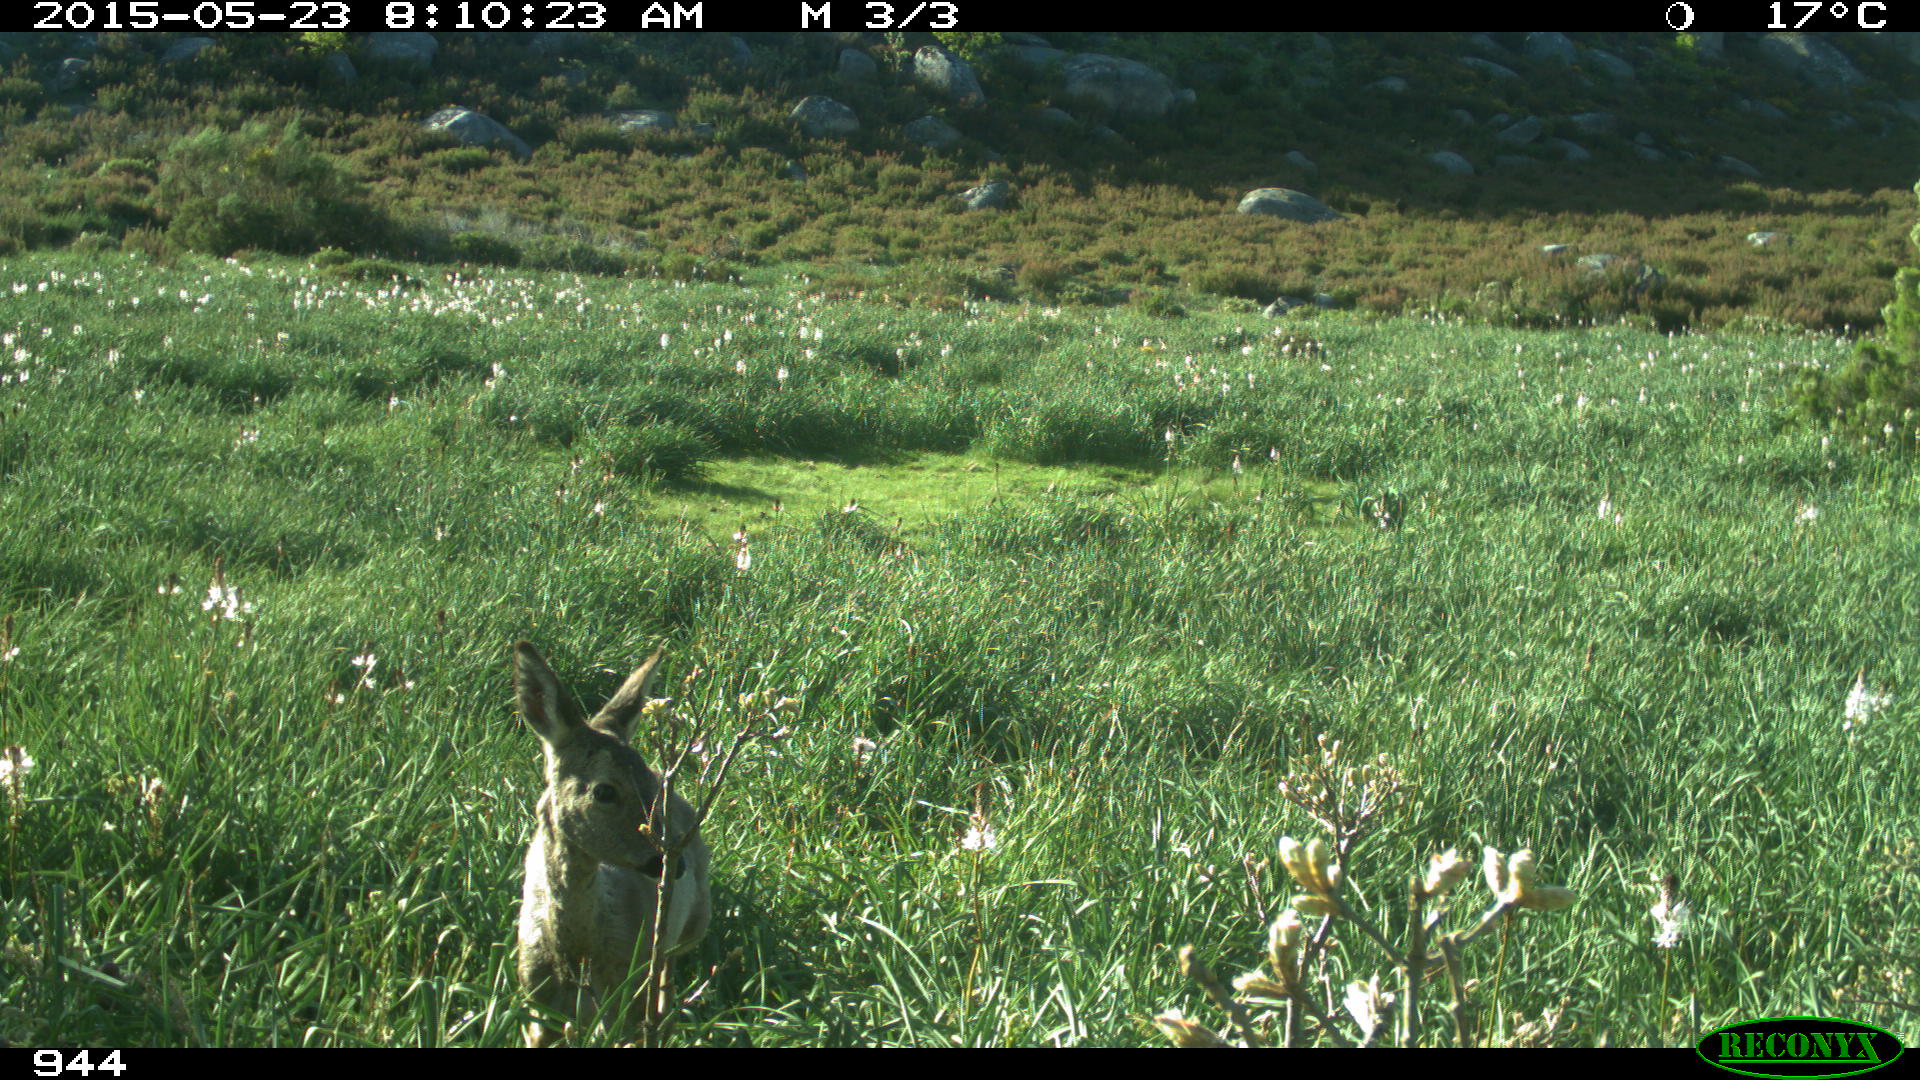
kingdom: Animalia
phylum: Chordata
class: Mammalia
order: Artiodactyla
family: Cervidae
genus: Capreolus
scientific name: Capreolus capreolus
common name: Western roe deer
